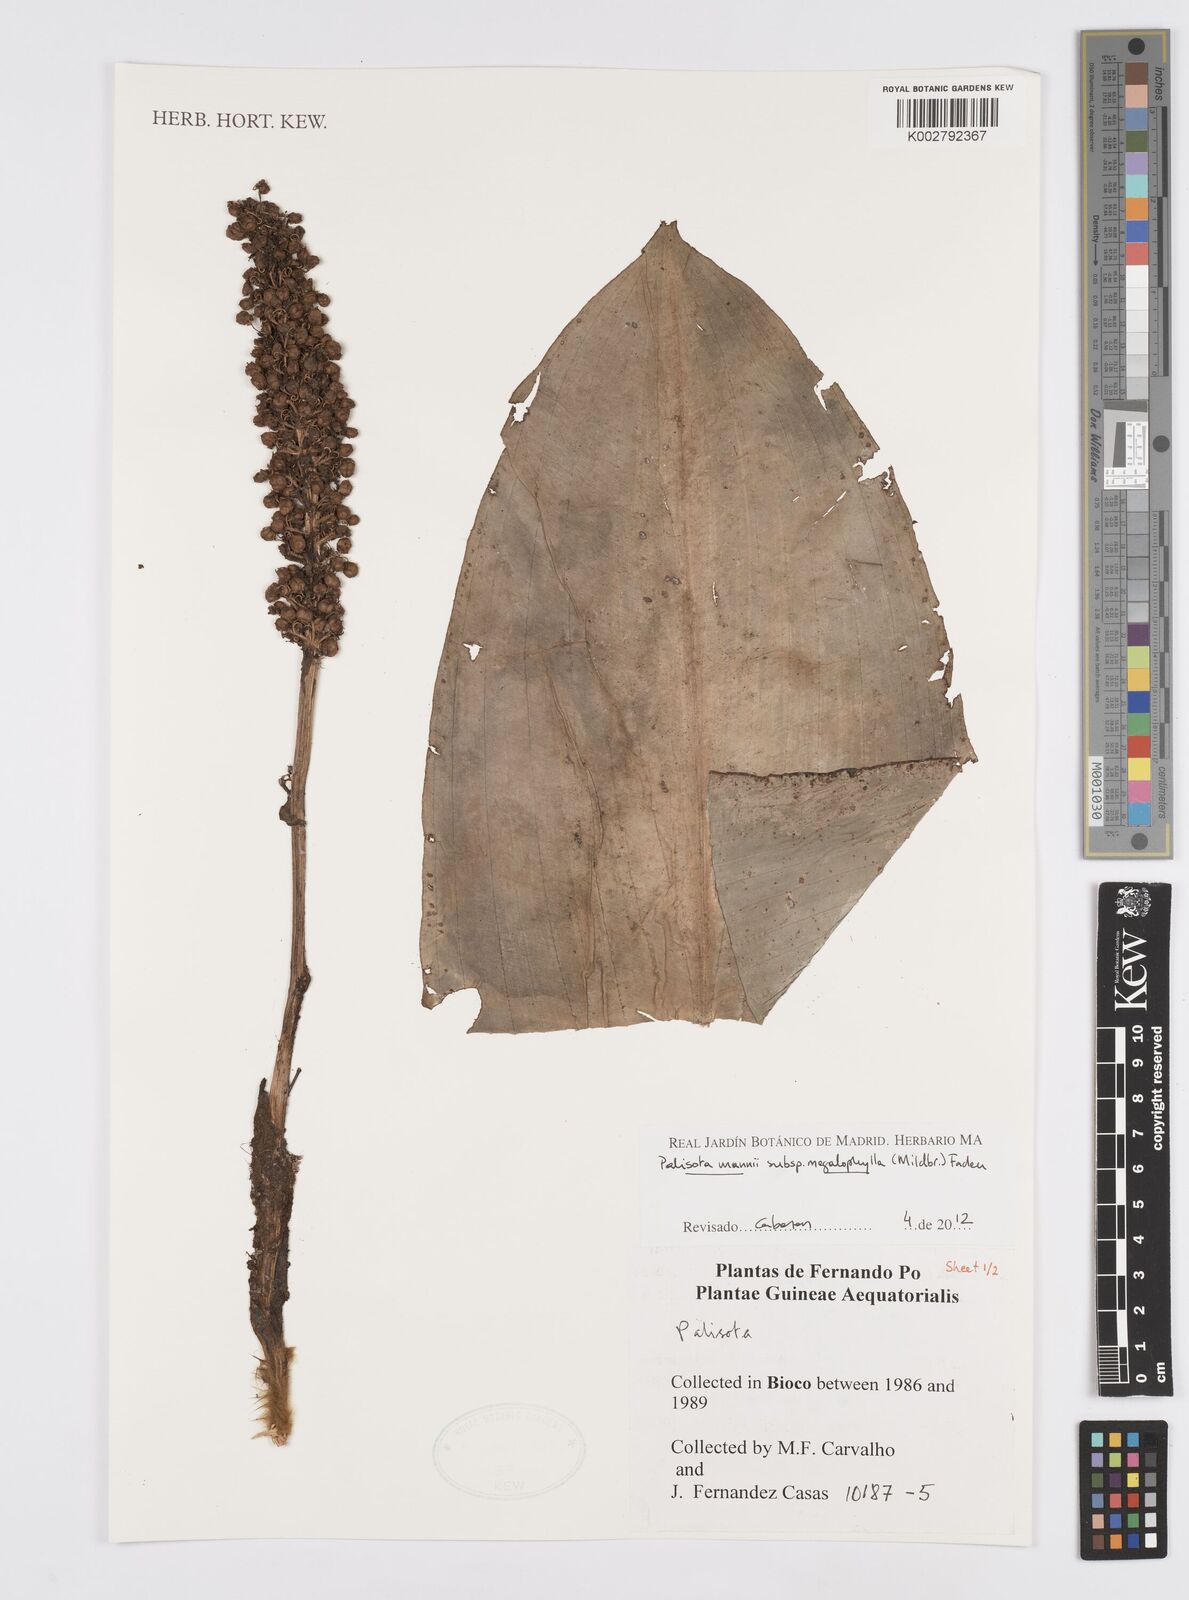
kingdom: Plantae
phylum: Tracheophyta
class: Liliopsida
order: Commelinales
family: Commelinaceae
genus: Palisota
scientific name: Palisota mannii
